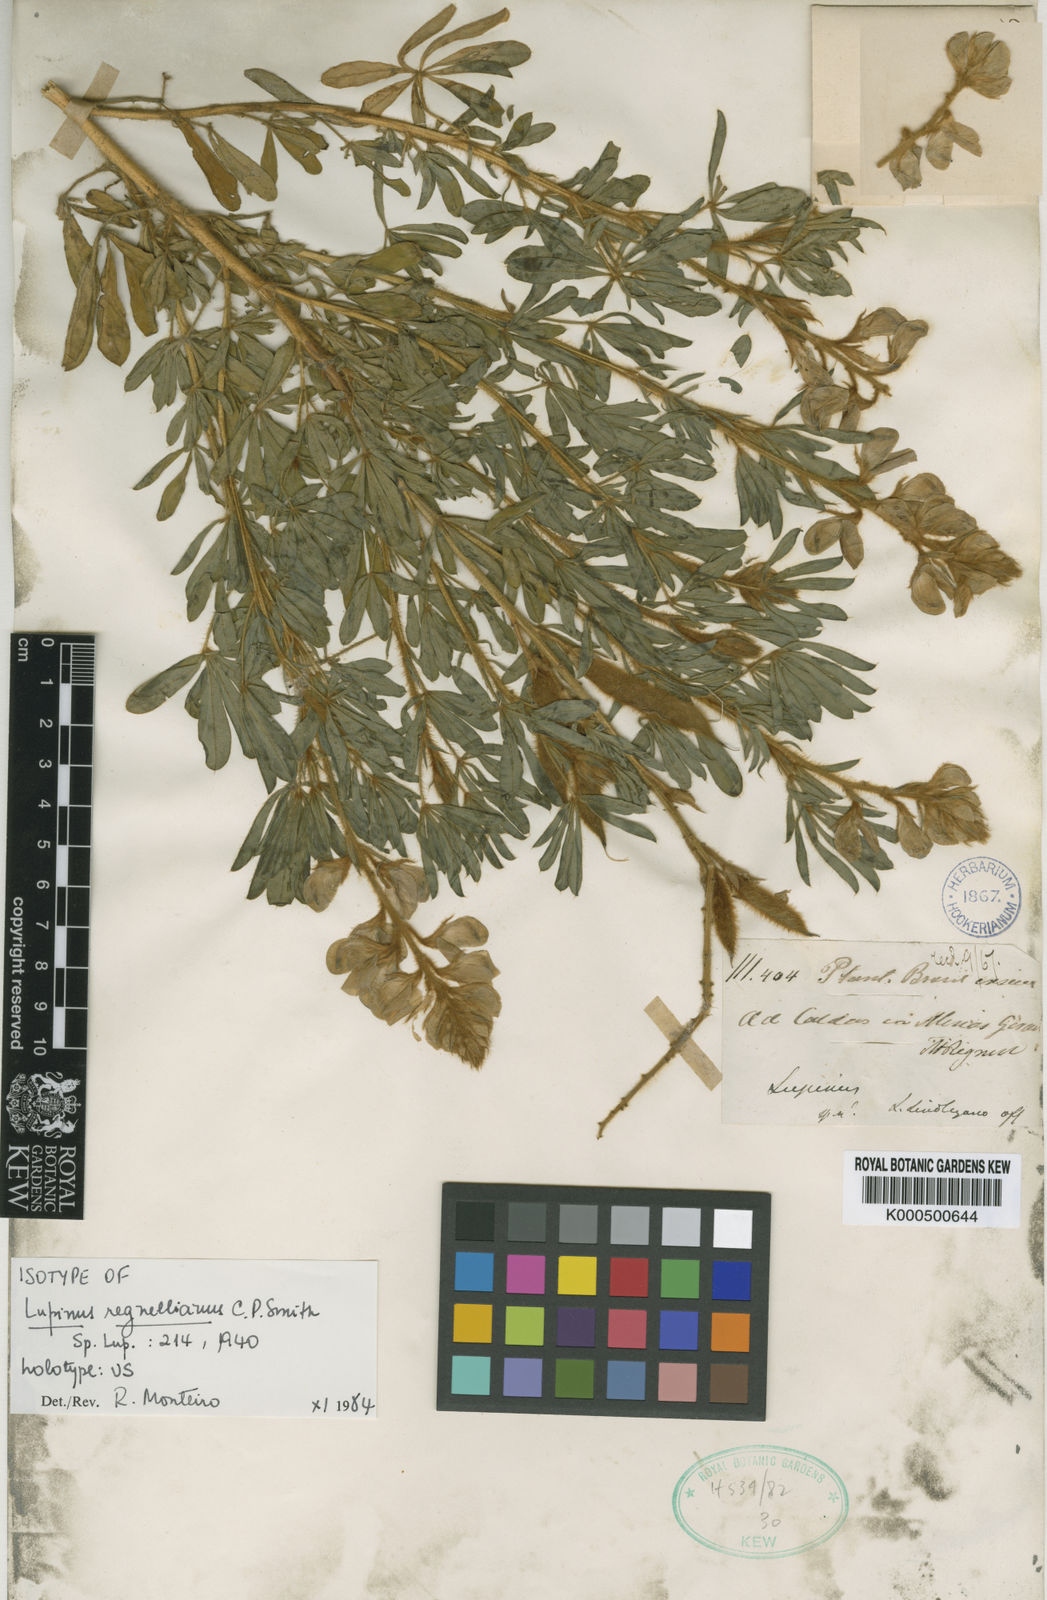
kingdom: Plantae
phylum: Tracheophyta
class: Magnoliopsida
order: Fabales
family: Fabaceae
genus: Lupinus
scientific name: Lupinus regnellianus
